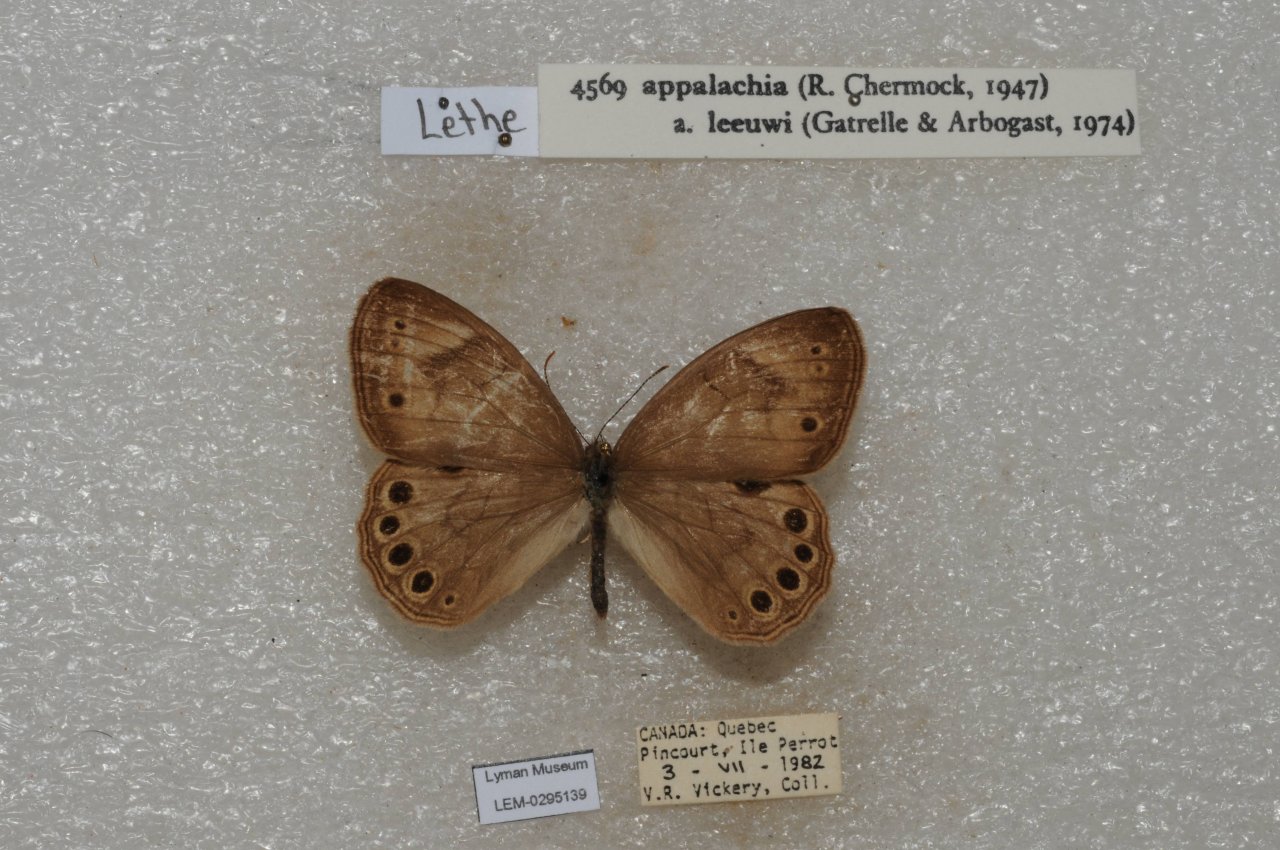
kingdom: Animalia
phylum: Arthropoda
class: Insecta
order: Lepidoptera
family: Nymphalidae
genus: Lethe
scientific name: Lethe eurydice
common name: Appalachian Eyed Brown
